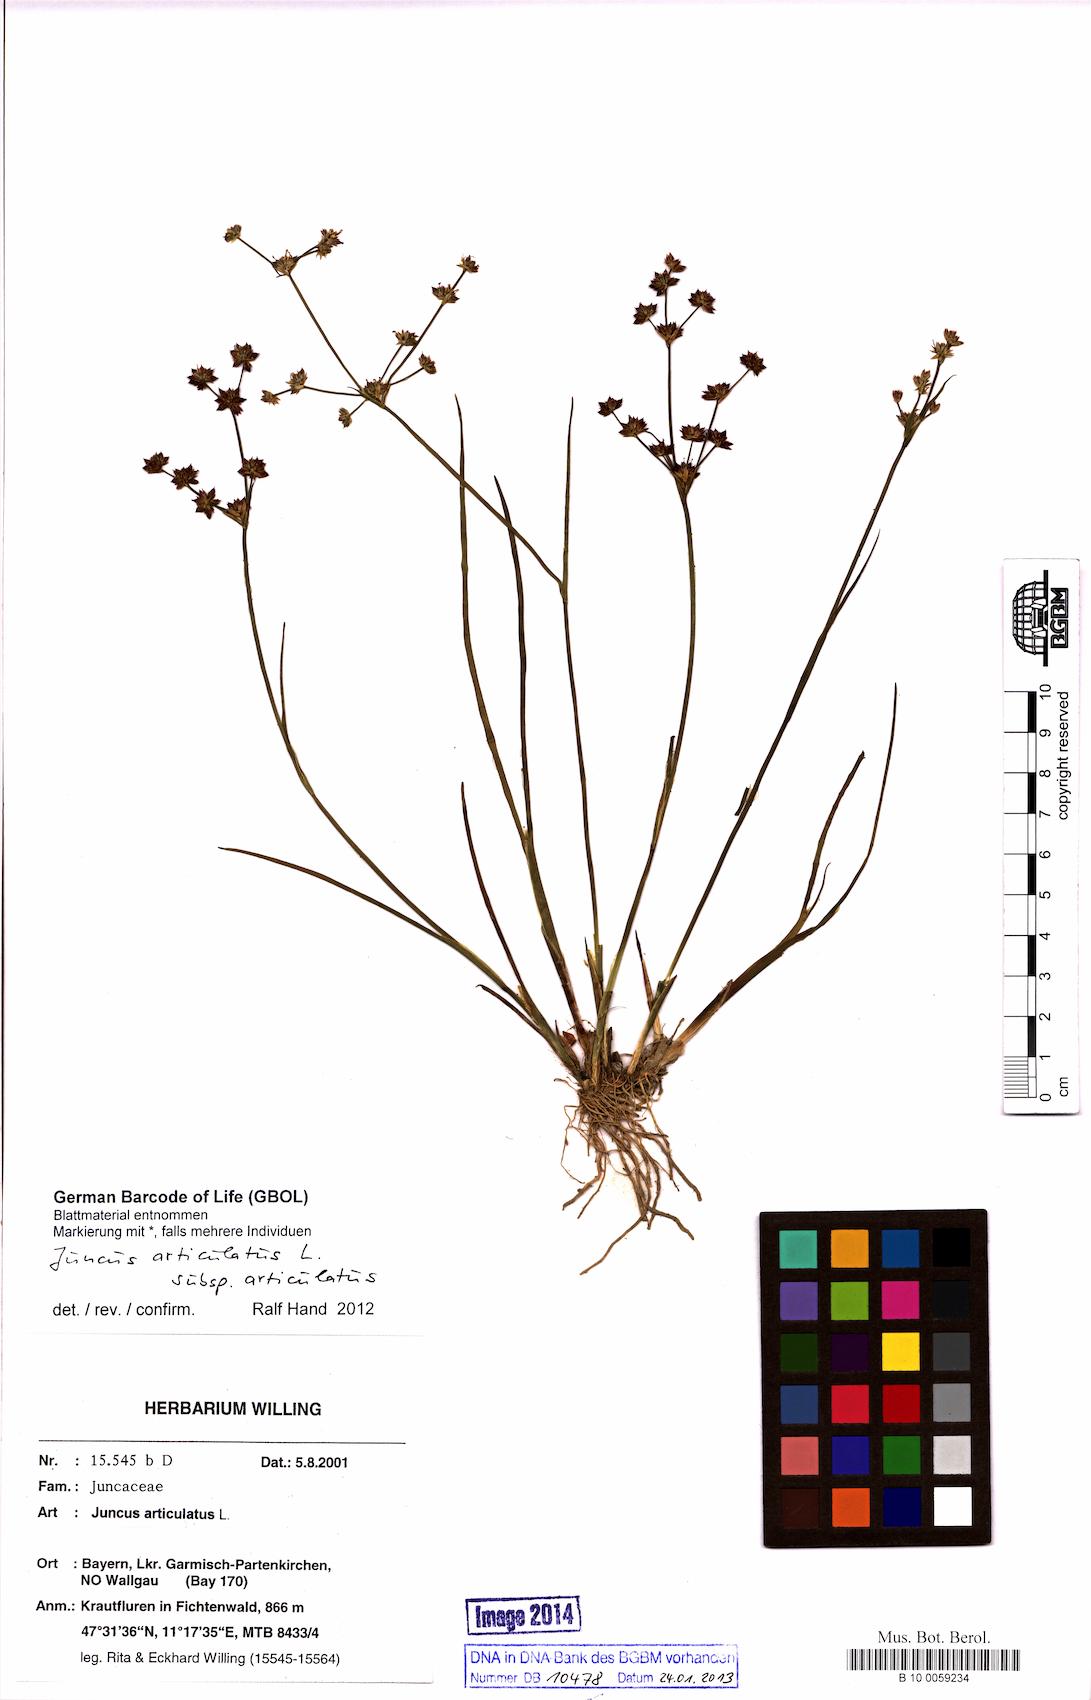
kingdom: Plantae
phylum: Tracheophyta
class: Liliopsida
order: Poales
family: Juncaceae
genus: Juncus
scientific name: Juncus articulatus
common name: Jointed rush
